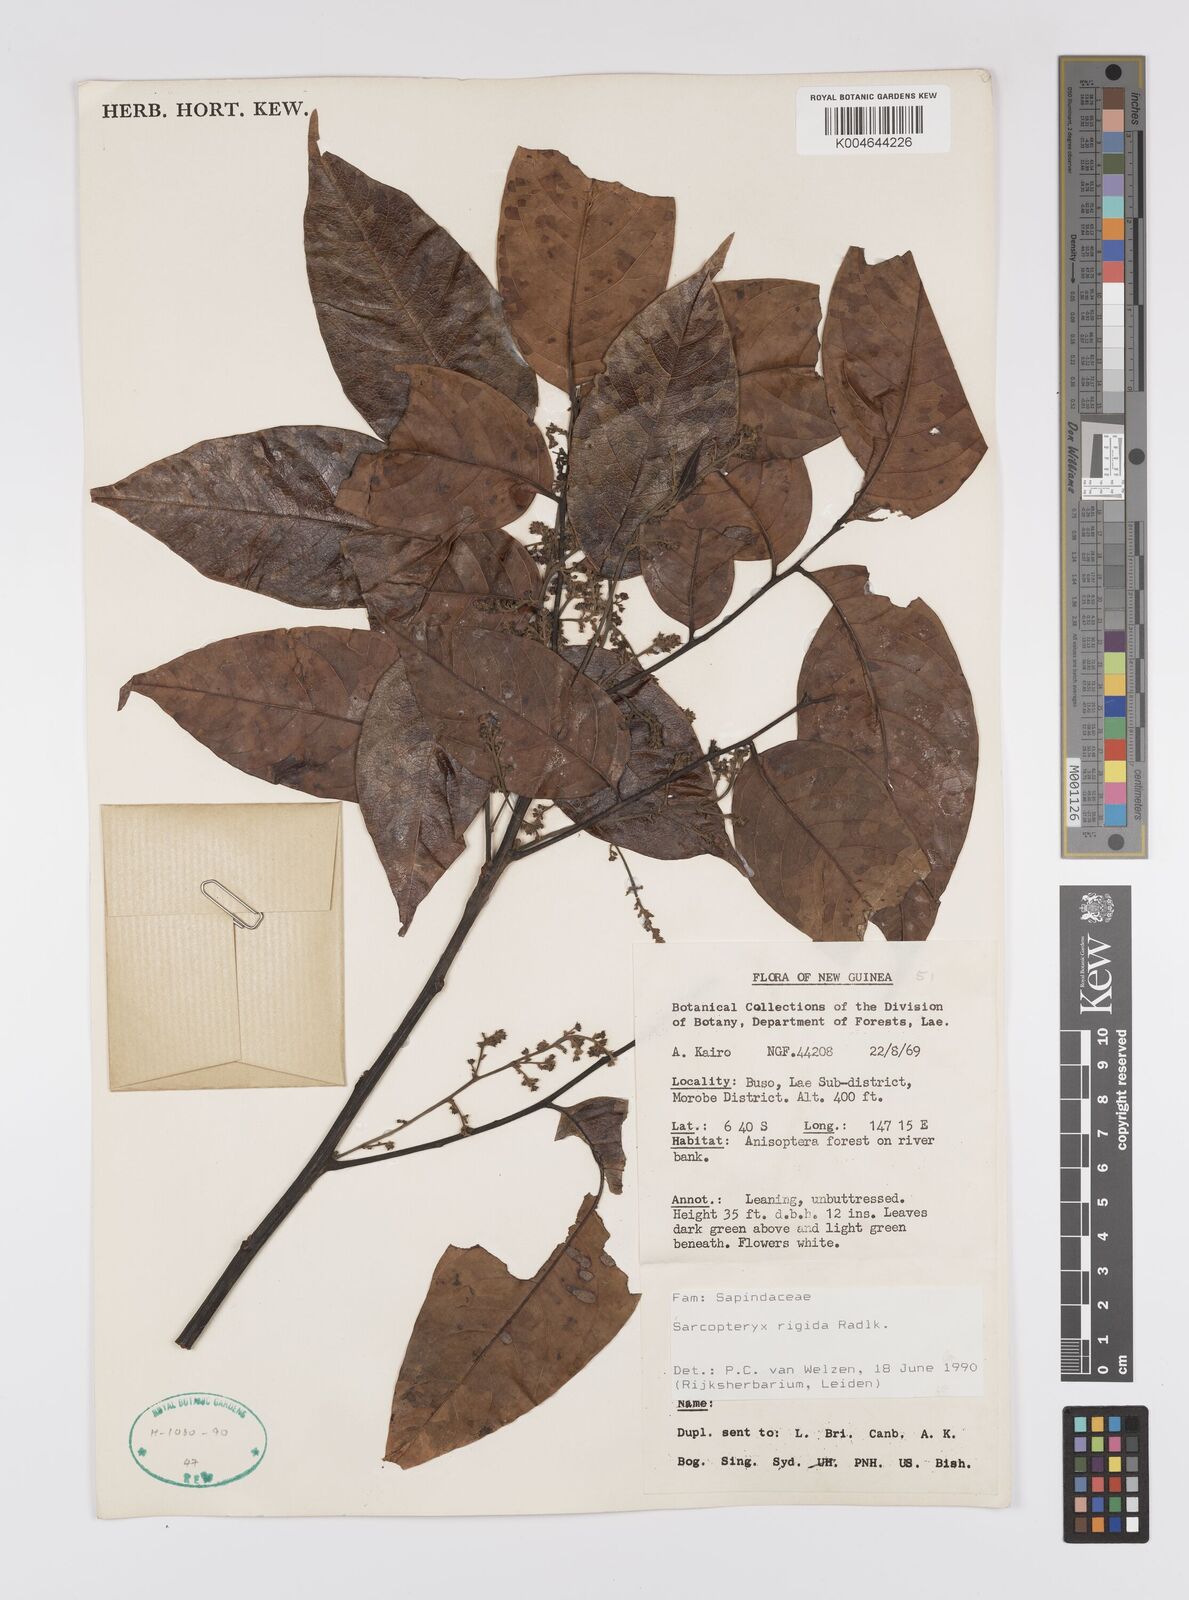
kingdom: Plantae
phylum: Tracheophyta
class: Magnoliopsida
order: Sapindales
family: Sapindaceae
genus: Sarcopteryx
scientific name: Sarcopteryx rigida
